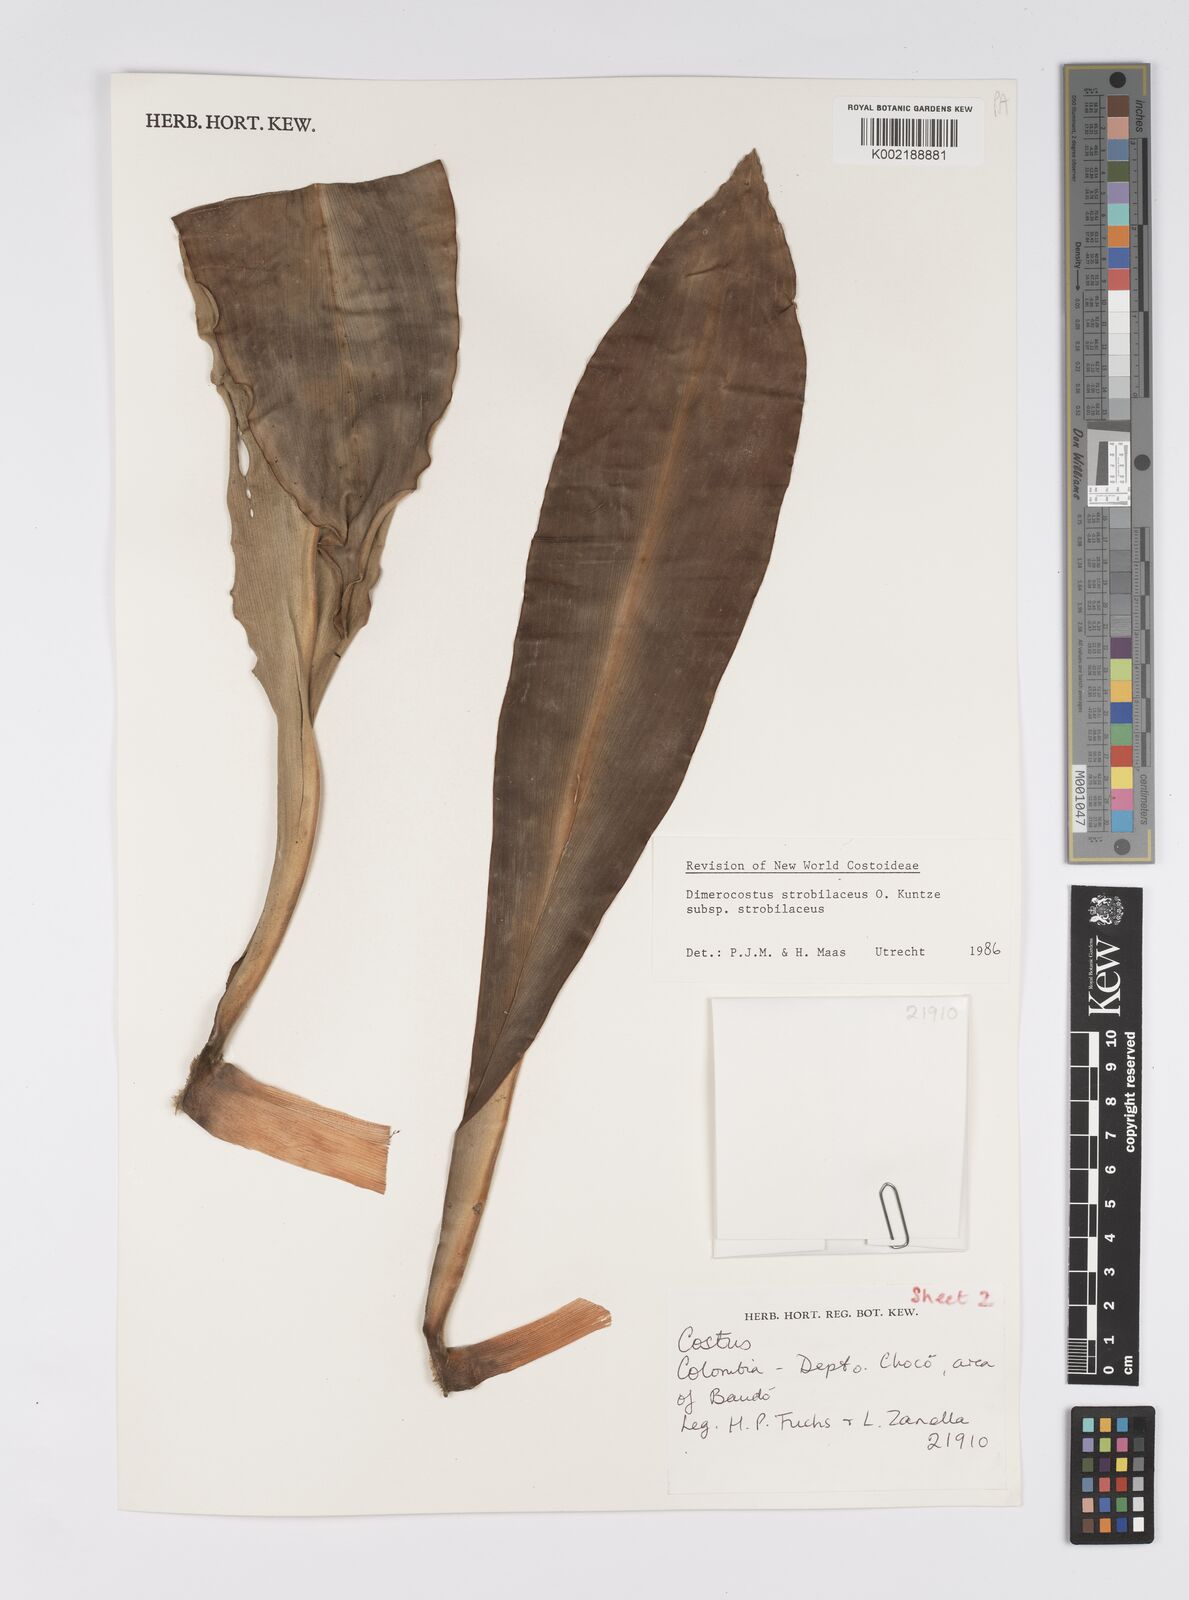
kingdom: Plantae
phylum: Tracheophyta
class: Liliopsida
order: Zingiberales
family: Costaceae
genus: Dimerocostus
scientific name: Dimerocostus strobilaceus
